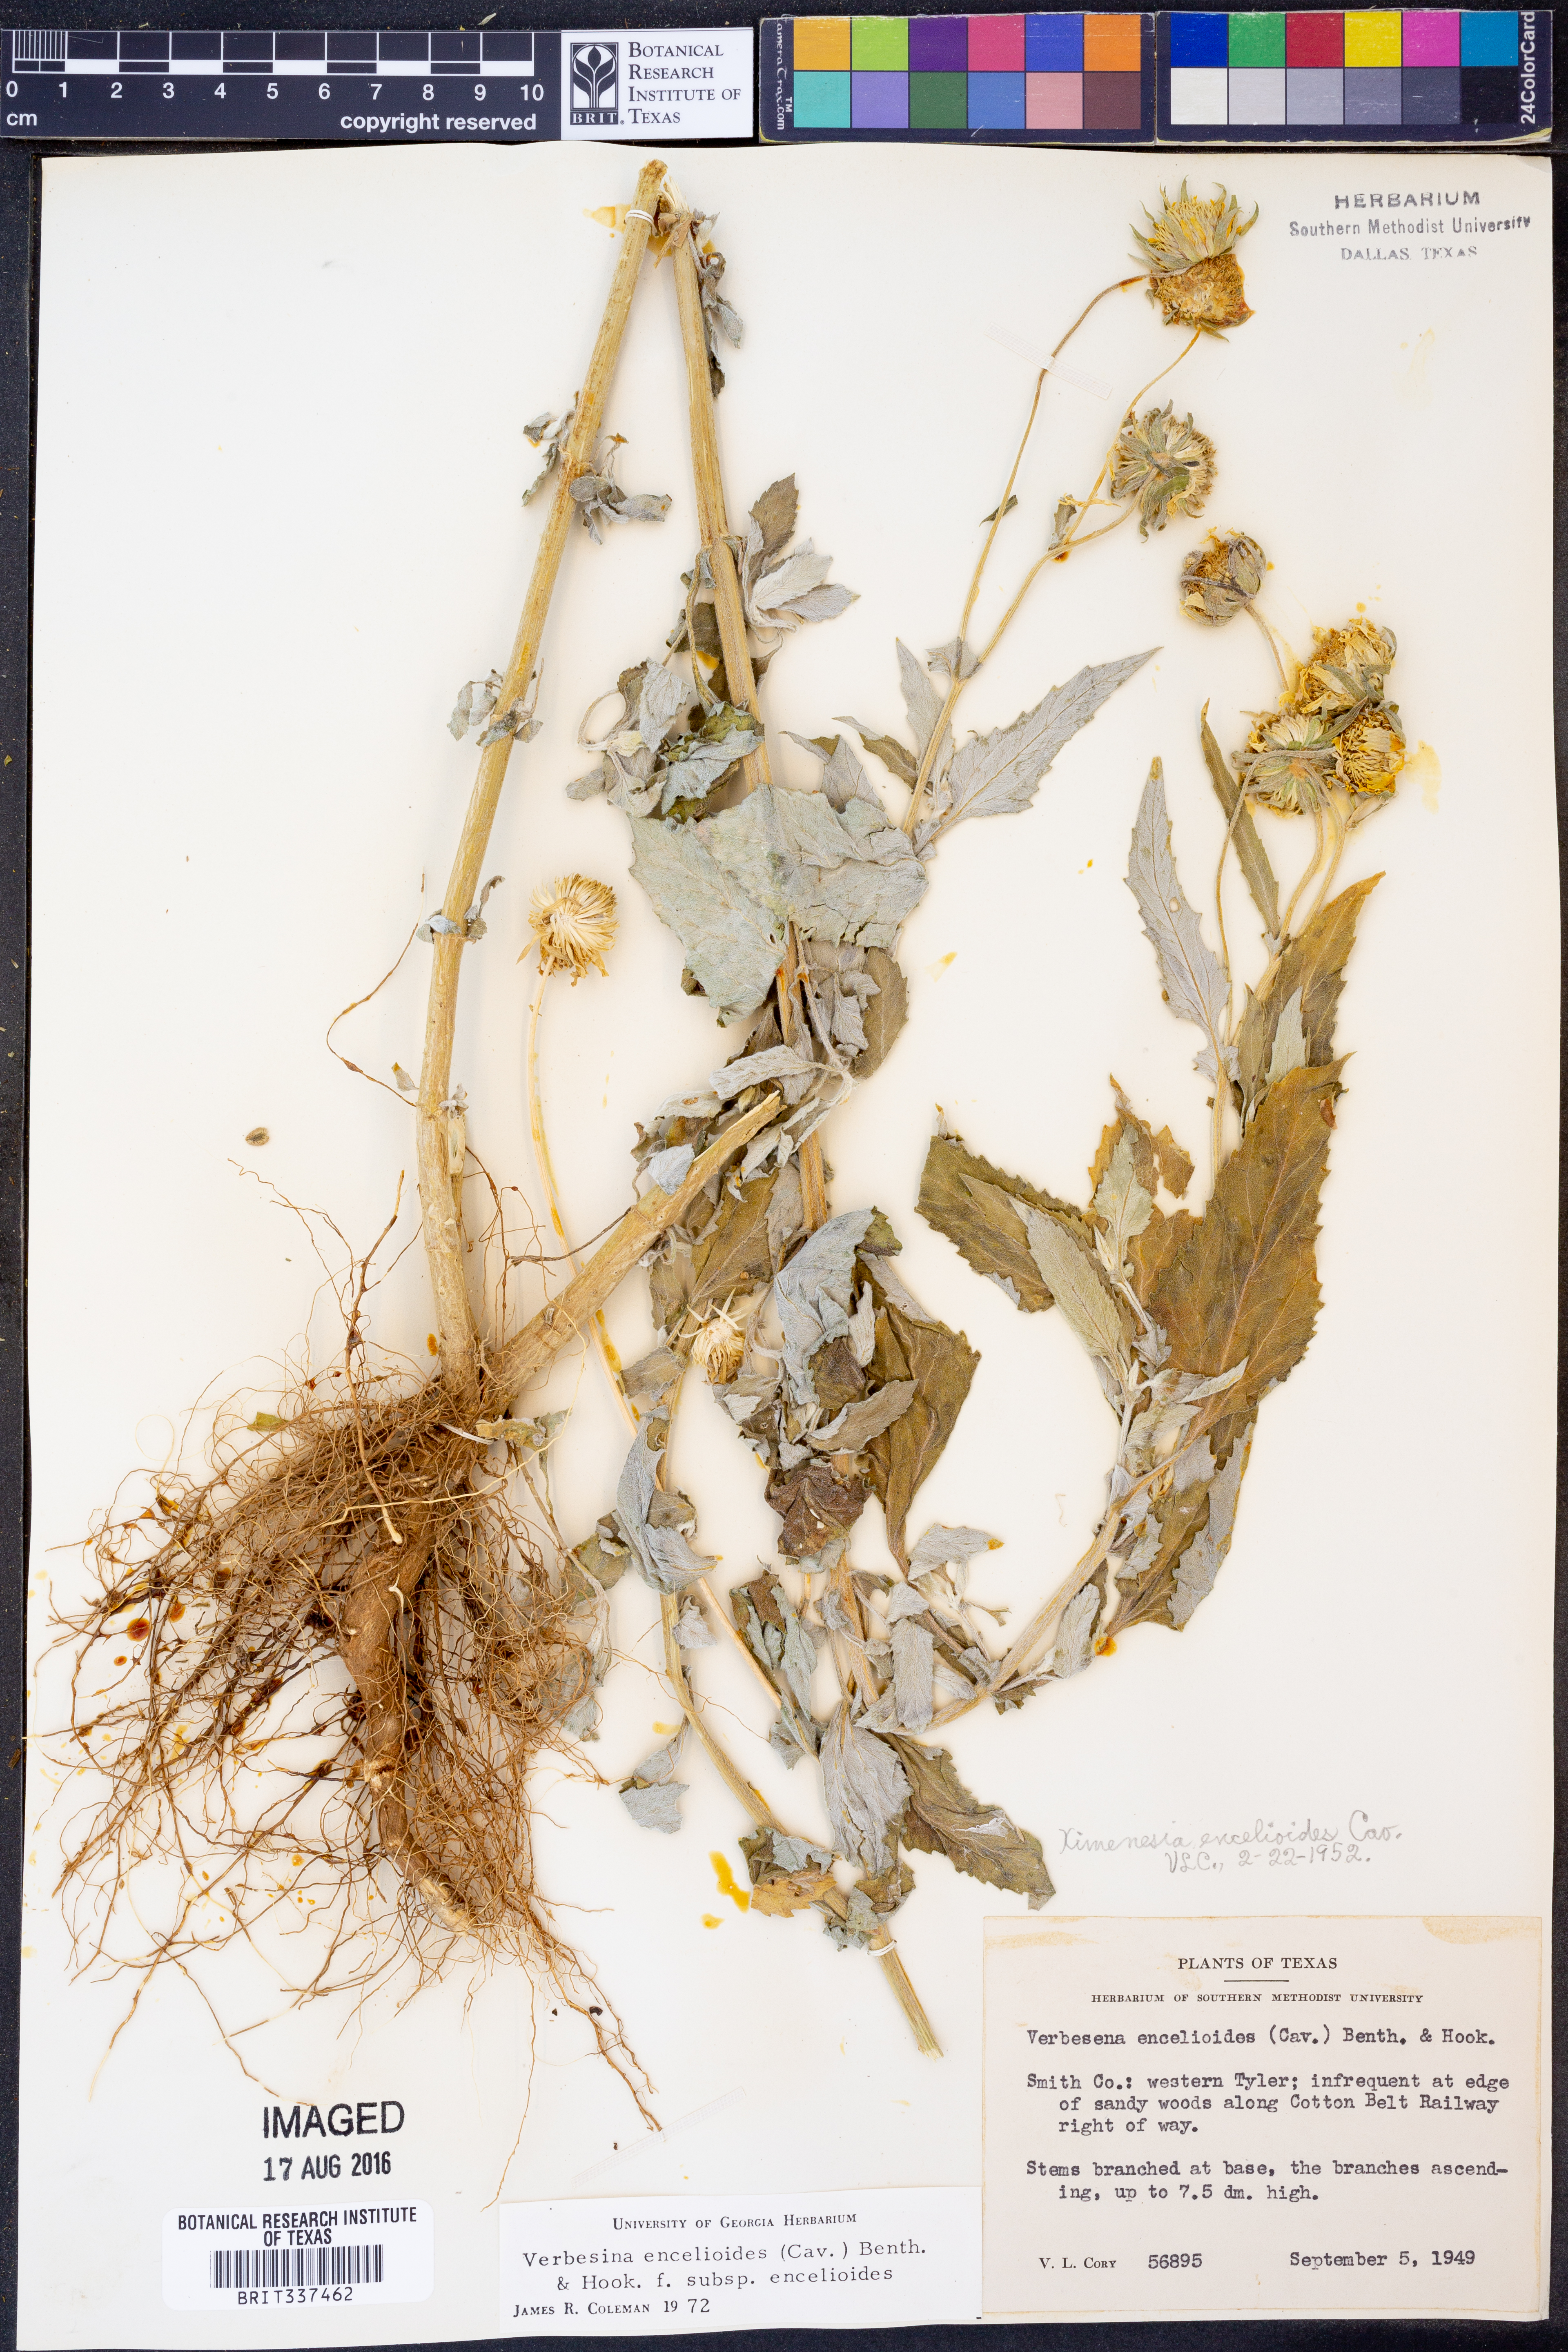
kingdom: Plantae
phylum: Tracheophyta
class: Magnoliopsida
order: Asterales
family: Asteraceae
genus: Verbesina
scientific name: Verbesina encelioides
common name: Golden crownbeard
